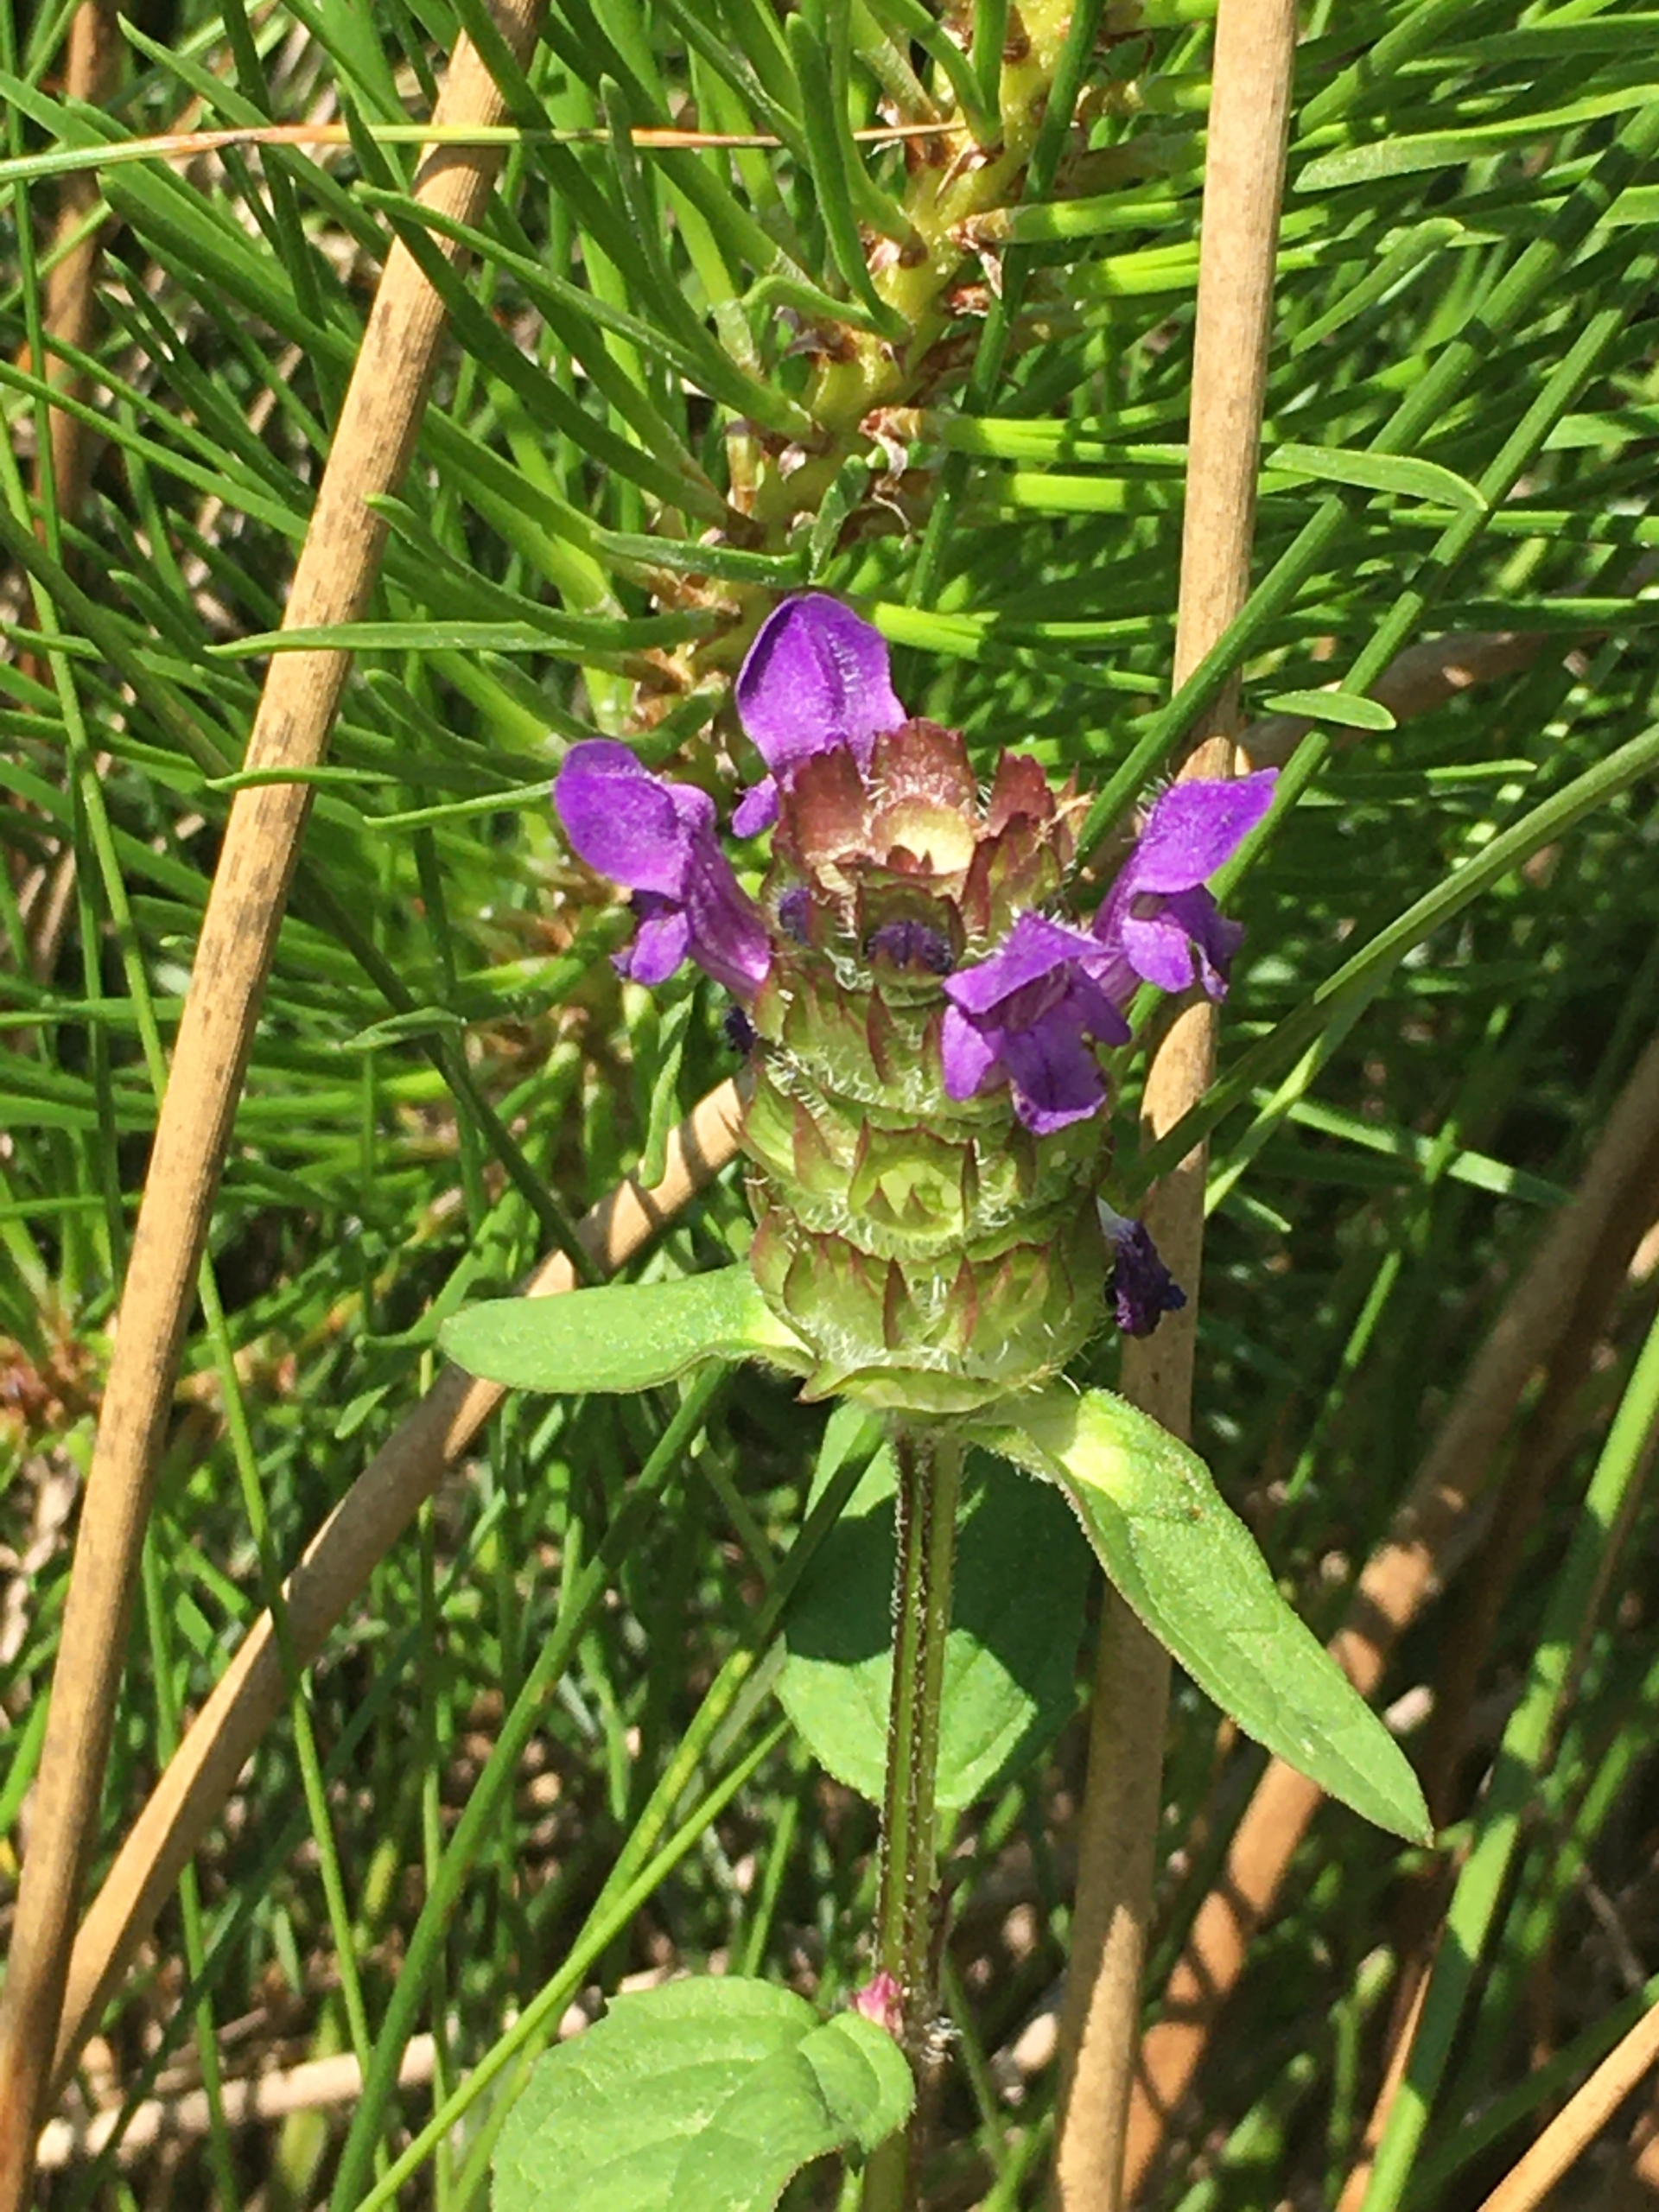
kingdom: Plantae
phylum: Tracheophyta
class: Magnoliopsida
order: Lamiales
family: Lamiaceae
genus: Prunella
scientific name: Prunella vulgaris
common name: Almindelig brunelle
